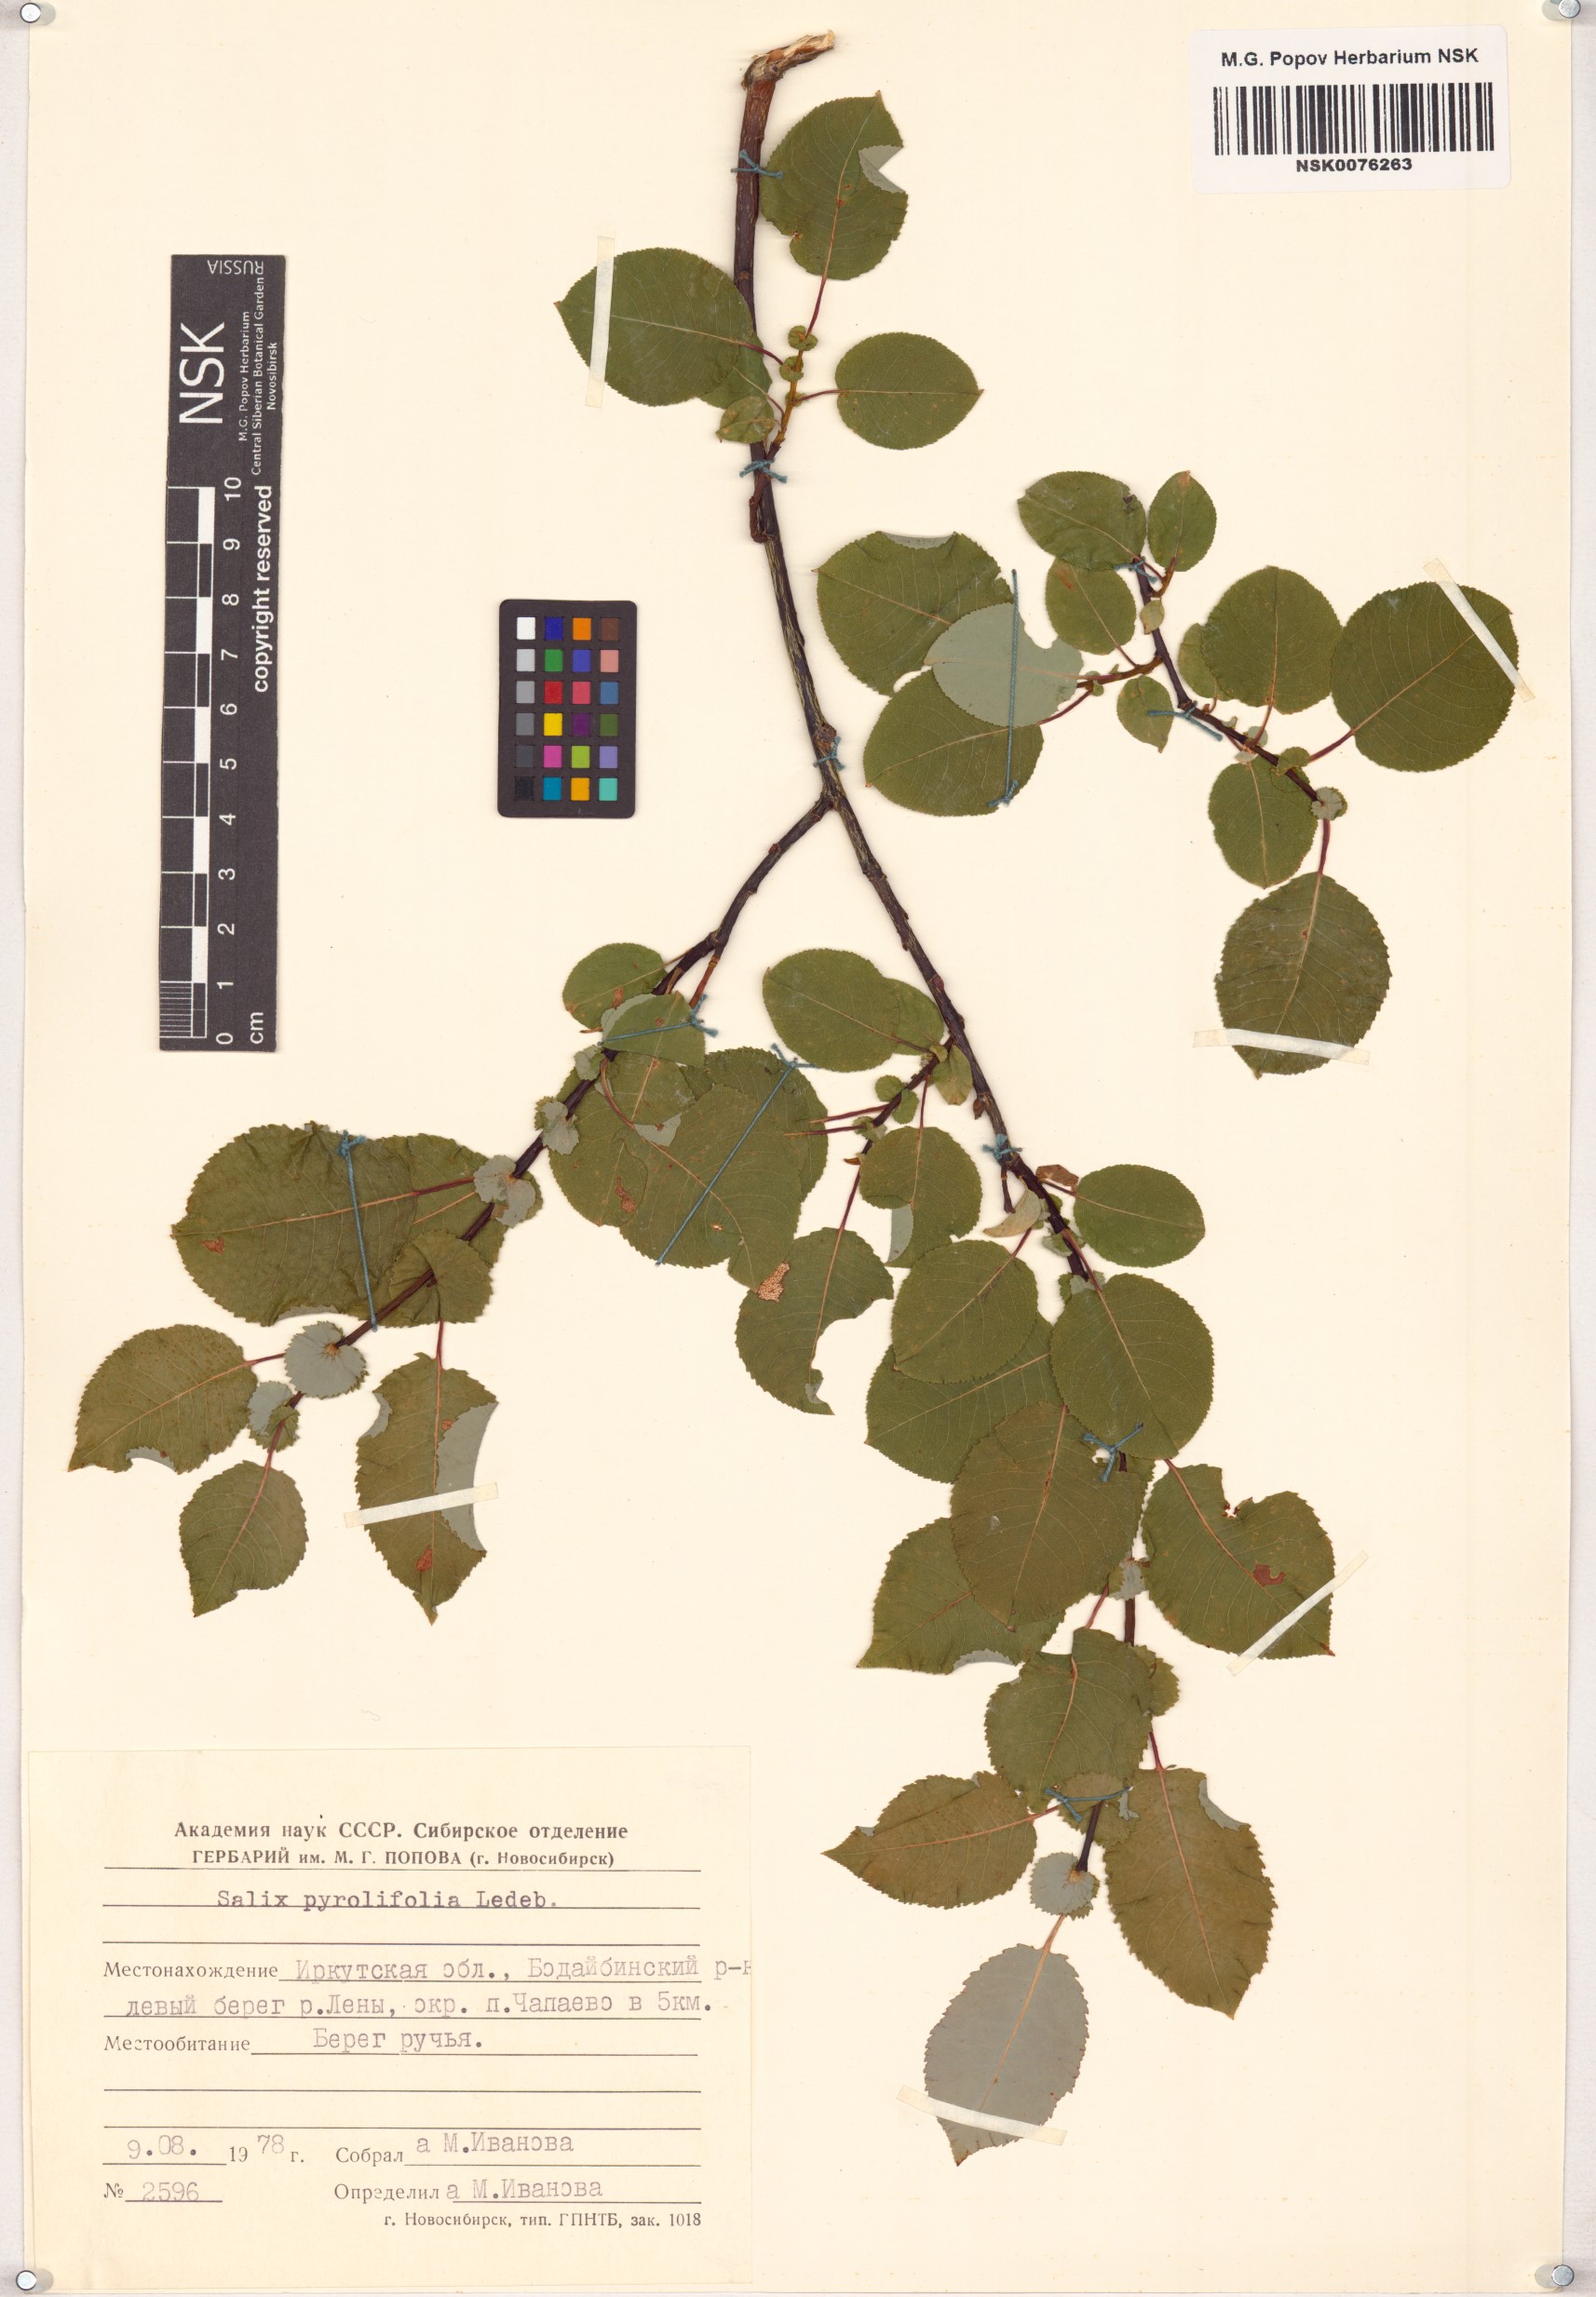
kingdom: Plantae
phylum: Tracheophyta
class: Magnoliopsida
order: Malpighiales
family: Salicaceae
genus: Salix
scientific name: Salix pyrolifolia
